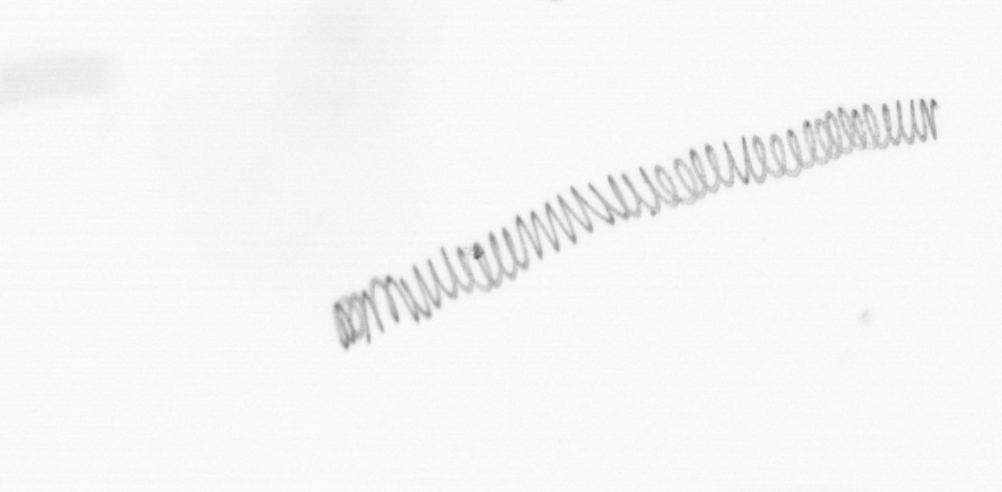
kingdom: Chromista
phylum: Ochrophyta
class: Bacillariophyceae
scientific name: Bacillariophyceae
